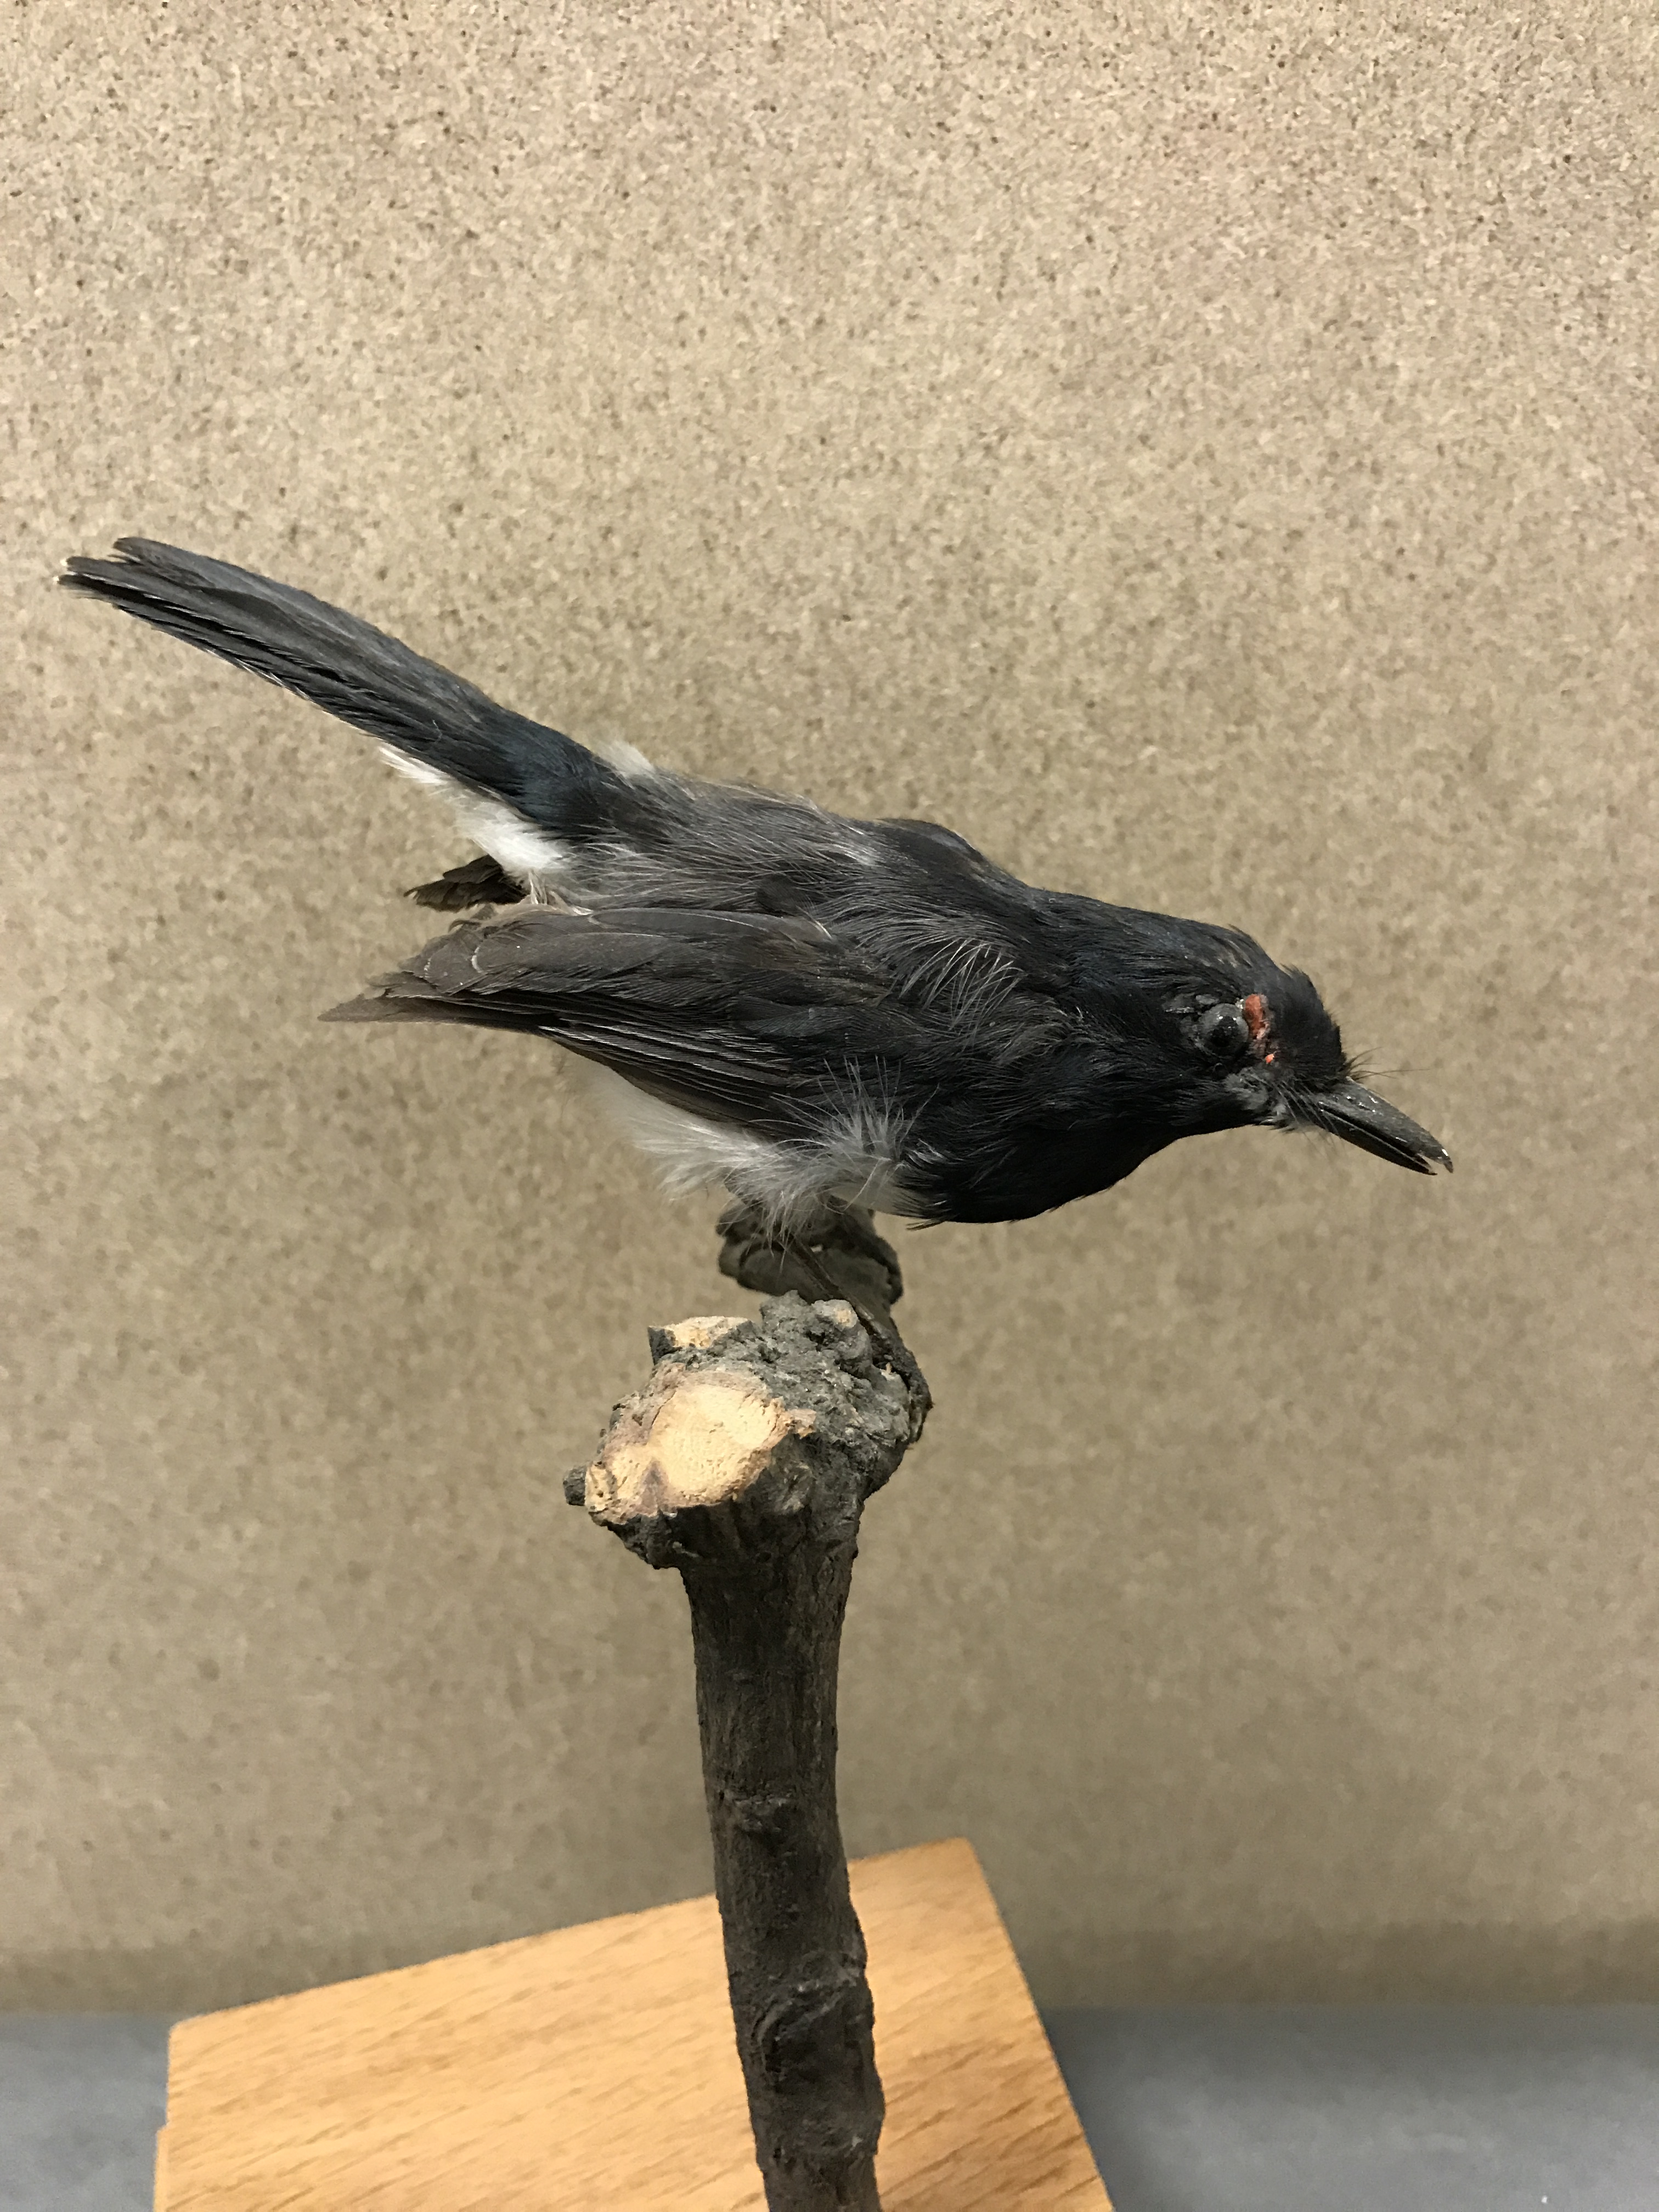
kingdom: Animalia
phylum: Chordata
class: Aves
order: Passeriformes
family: Platysteiridae
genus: Platysteira
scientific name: Platysteira peltata
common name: Black-throated wattle-eye
